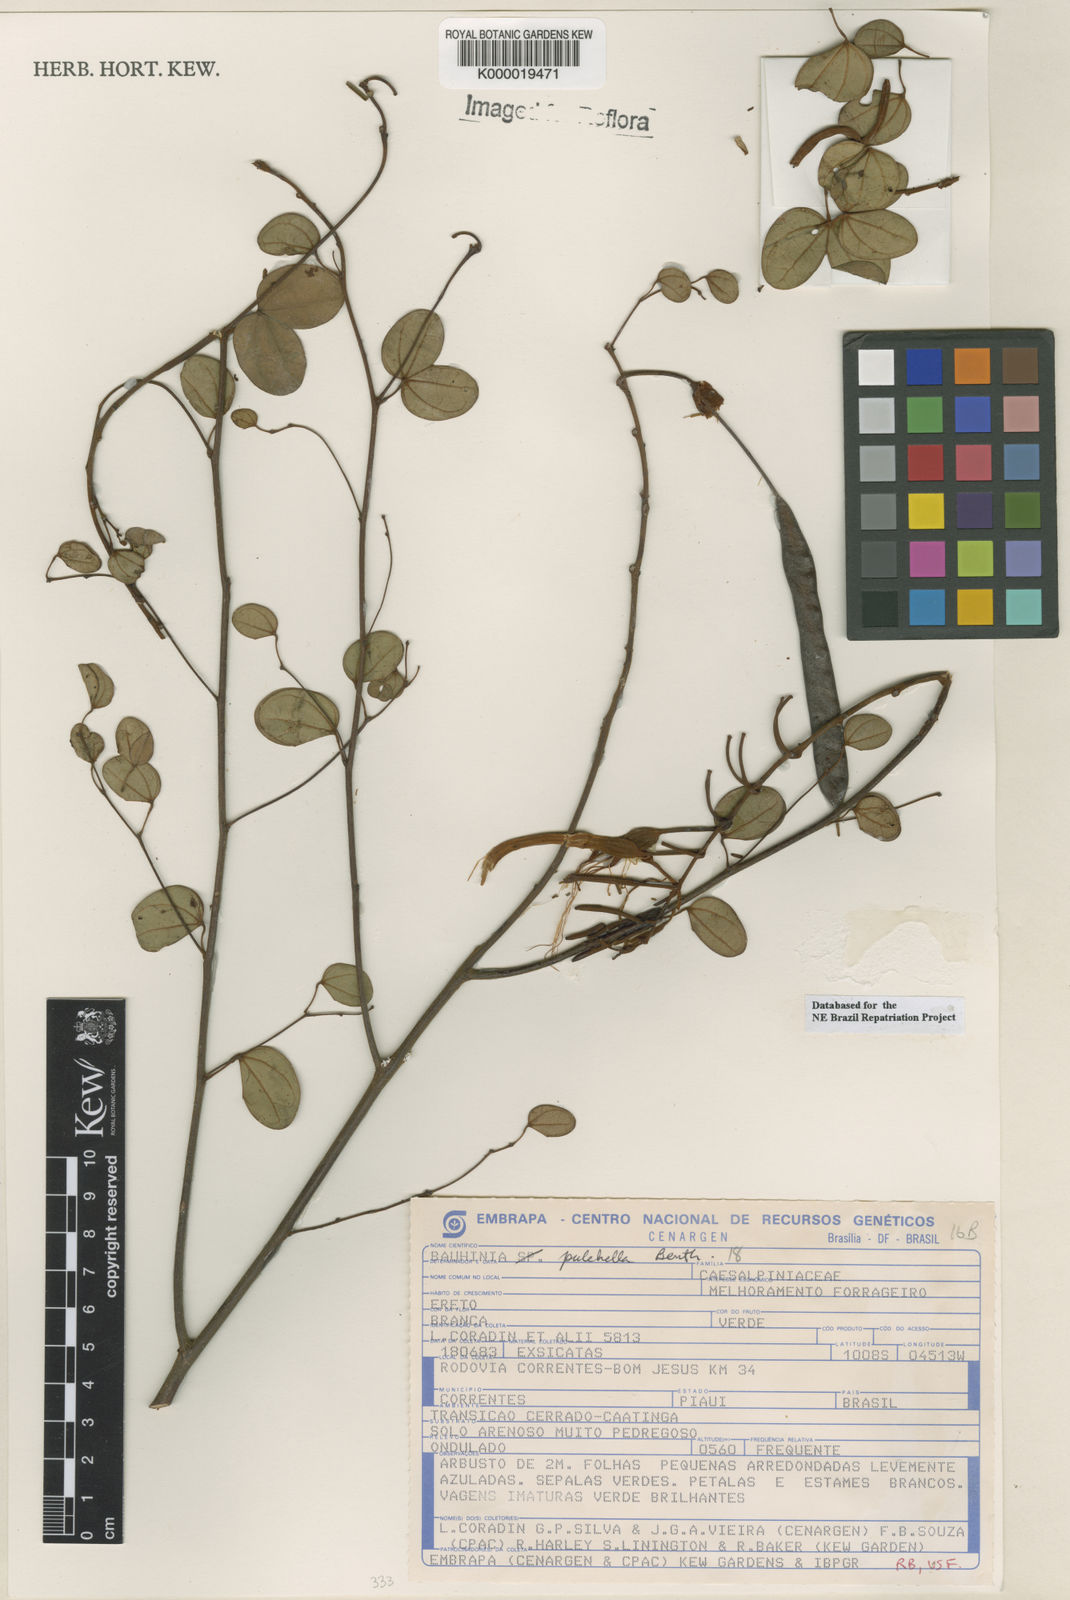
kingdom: Plantae
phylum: Tracheophyta
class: Magnoliopsida
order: Fabales
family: Fabaceae
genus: Bauhinia
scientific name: Bauhinia pulchella
